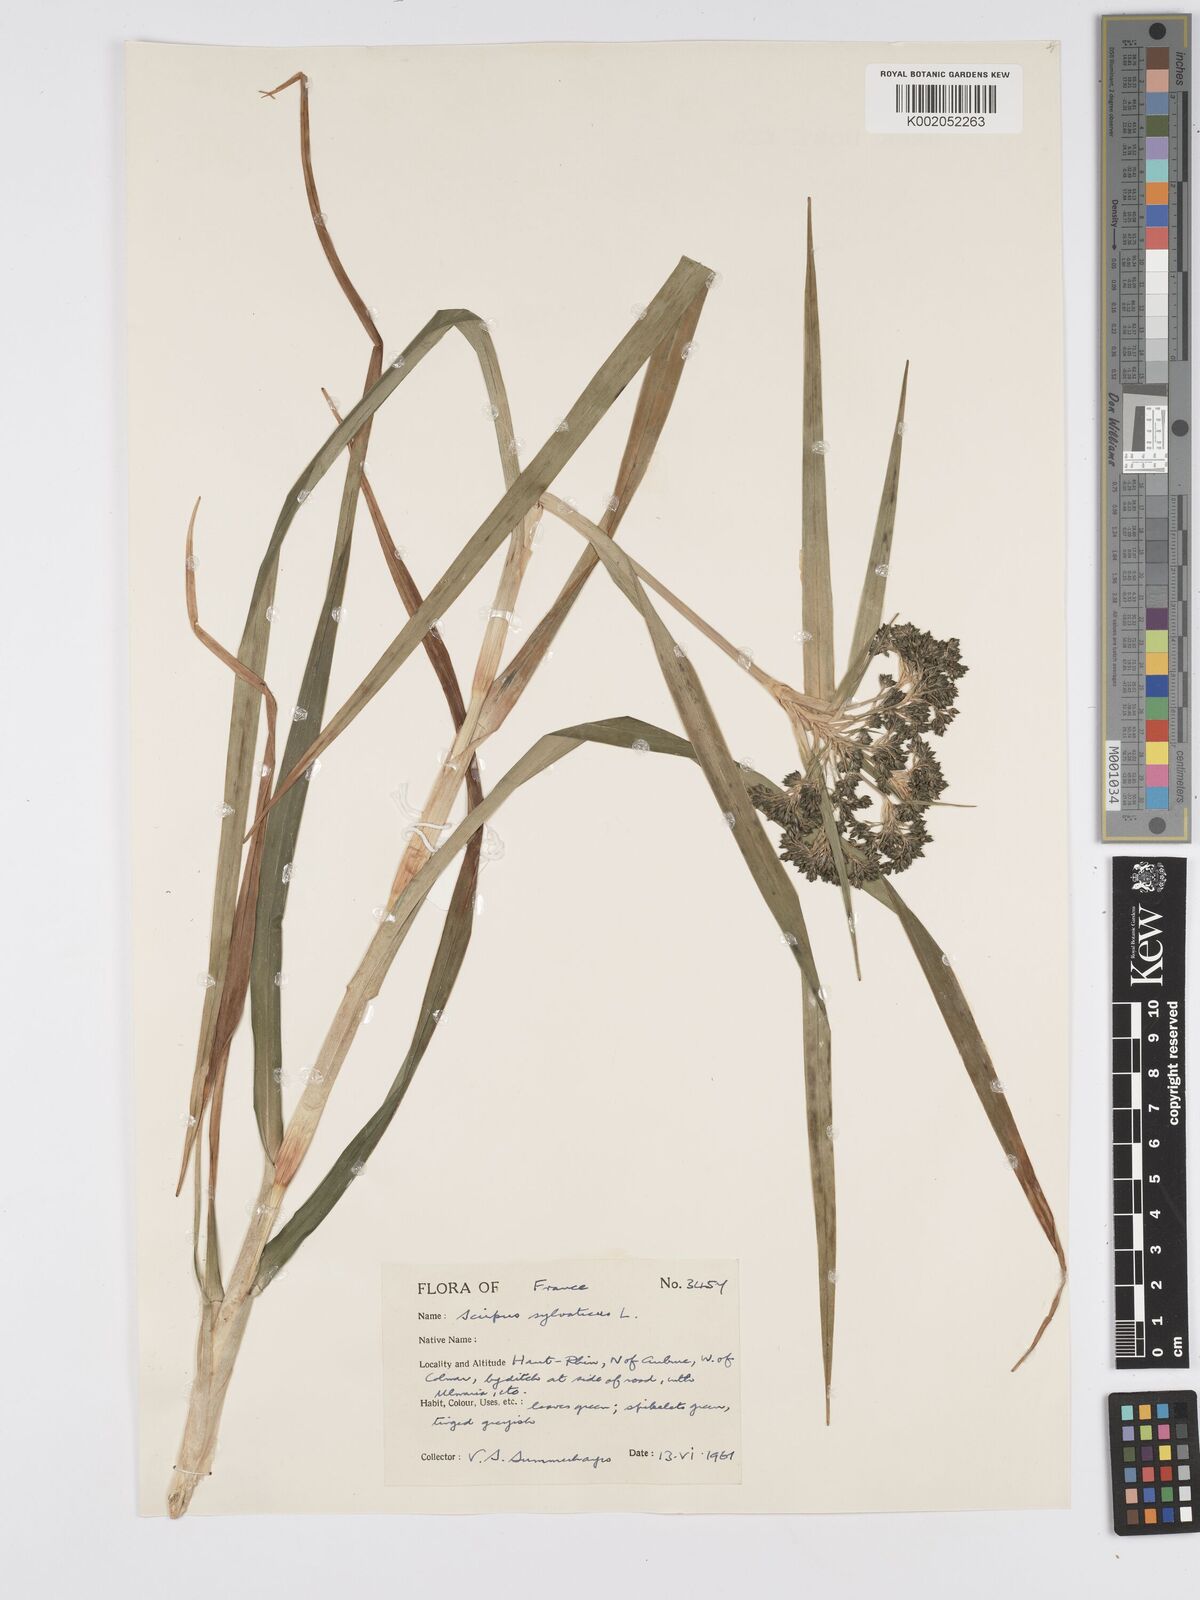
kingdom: Plantae
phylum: Tracheophyta
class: Liliopsida
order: Poales
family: Cyperaceae
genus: Scirpus
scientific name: Scirpus sylvaticus
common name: Wood club-rush
